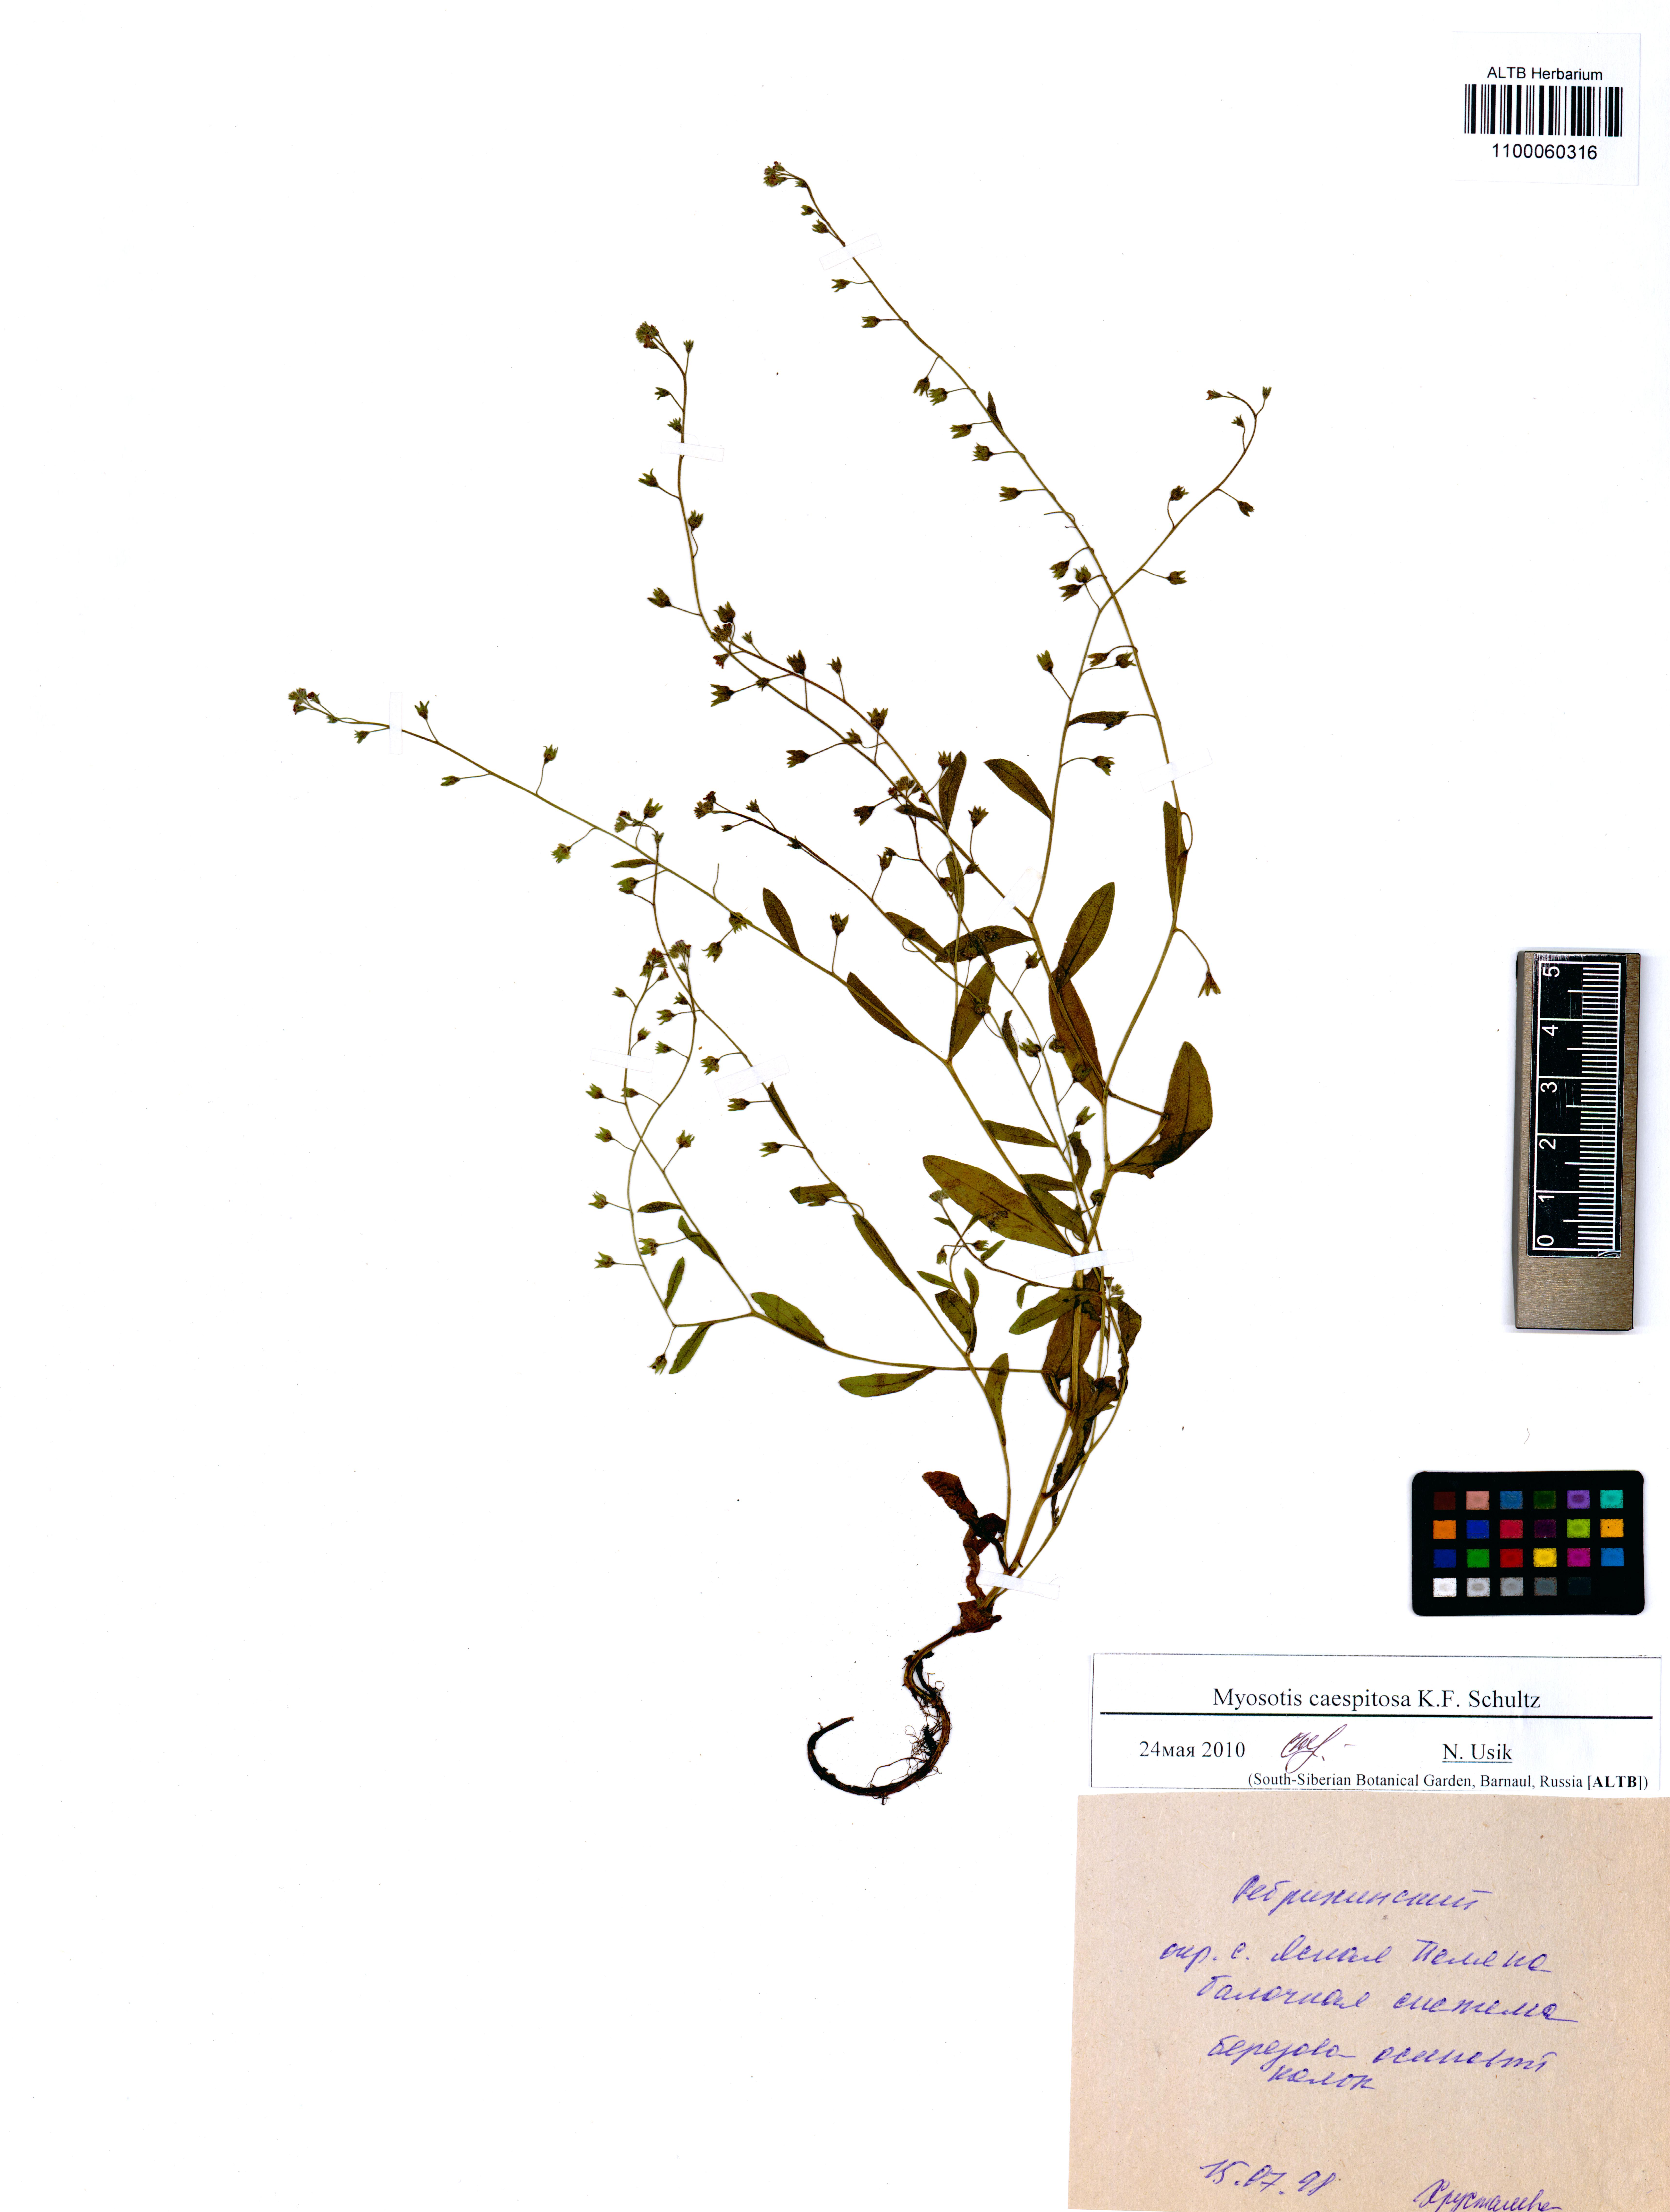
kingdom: Plantae
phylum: Tracheophyta
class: Magnoliopsida
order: Boraginales
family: Boraginaceae
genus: Myosotis
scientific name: Myosotis laxa
